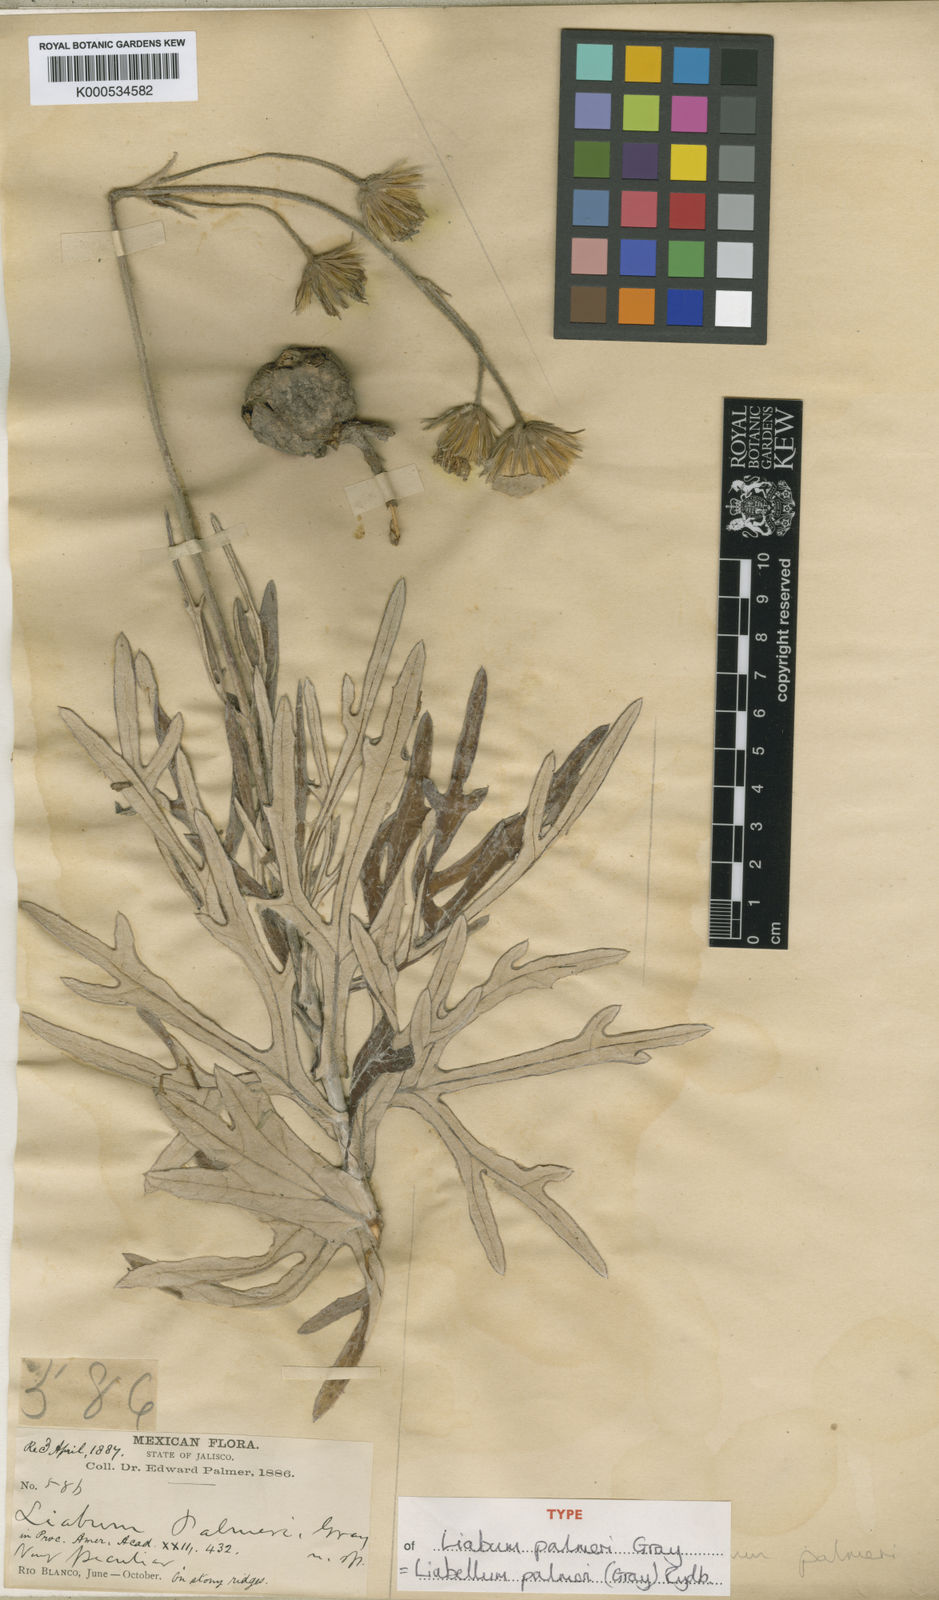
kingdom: Plantae
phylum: Tracheophyta
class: Magnoliopsida
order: Asterales
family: Asteraceae
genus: Sinclairia
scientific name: Sinclairia palmeri
